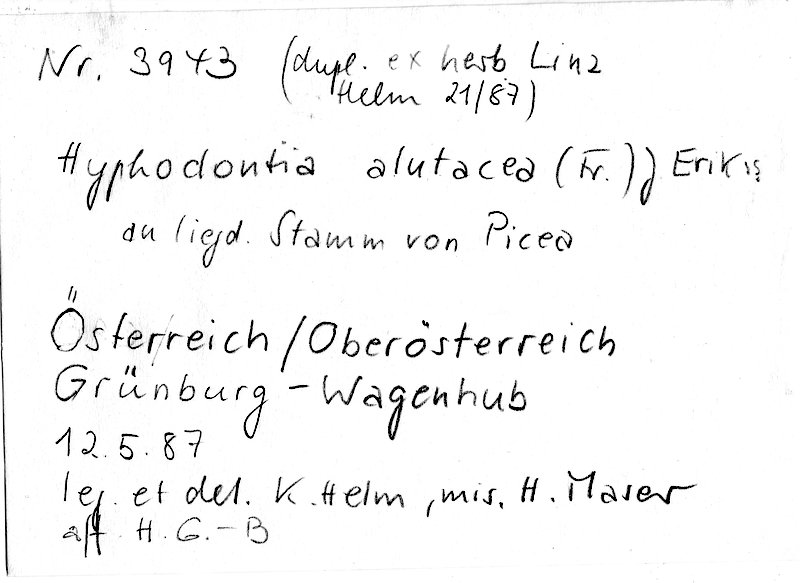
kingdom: Fungi
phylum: Basidiomycota
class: Agaricomycetes
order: Hymenochaetales
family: Schizoporaceae
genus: Alutaceodontia
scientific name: Alutaceodontia alutacea
